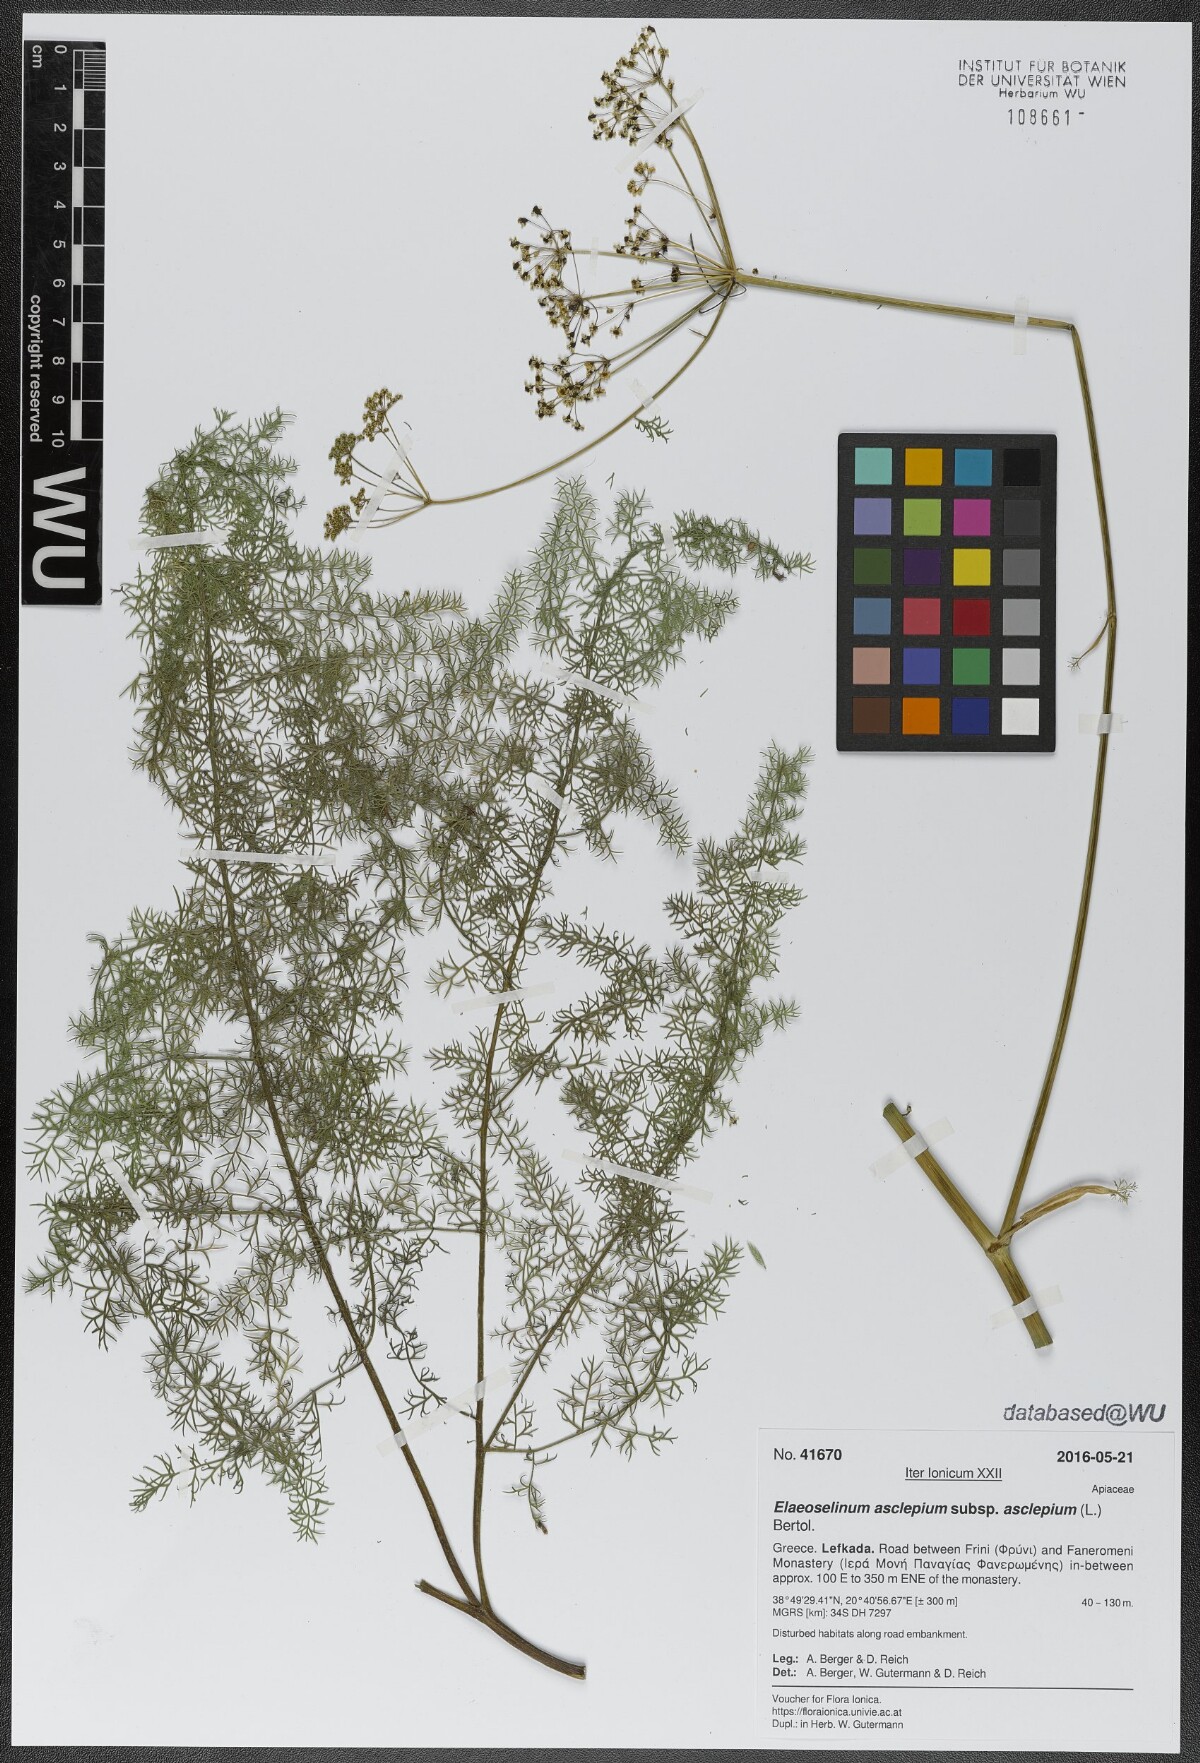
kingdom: Plantae
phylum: Tracheophyta
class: Magnoliopsida
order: Apiales
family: Apiaceae
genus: Thapsia
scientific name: Thapsia asclepium
